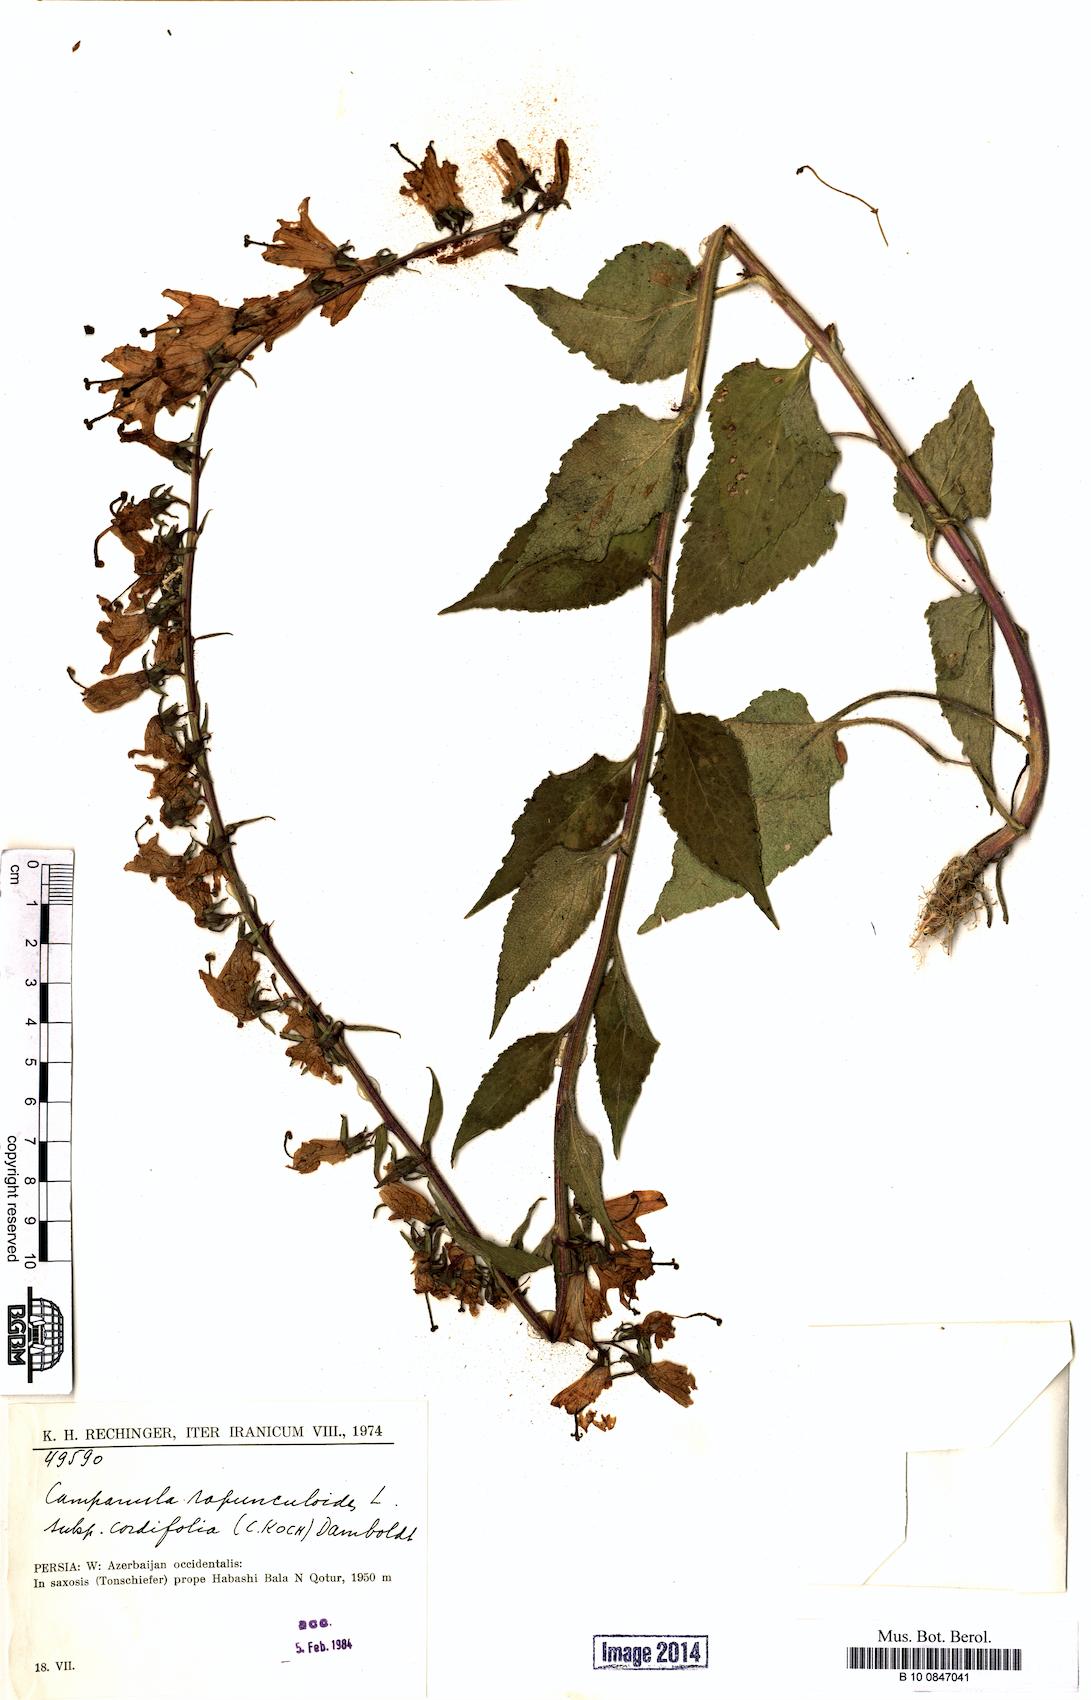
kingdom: Plantae
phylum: Tracheophyta
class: Magnoliopsida
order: Asterales
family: Campanulaceae
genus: Campanula
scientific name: Campanula rapunculoides
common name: Creeping bellflower
